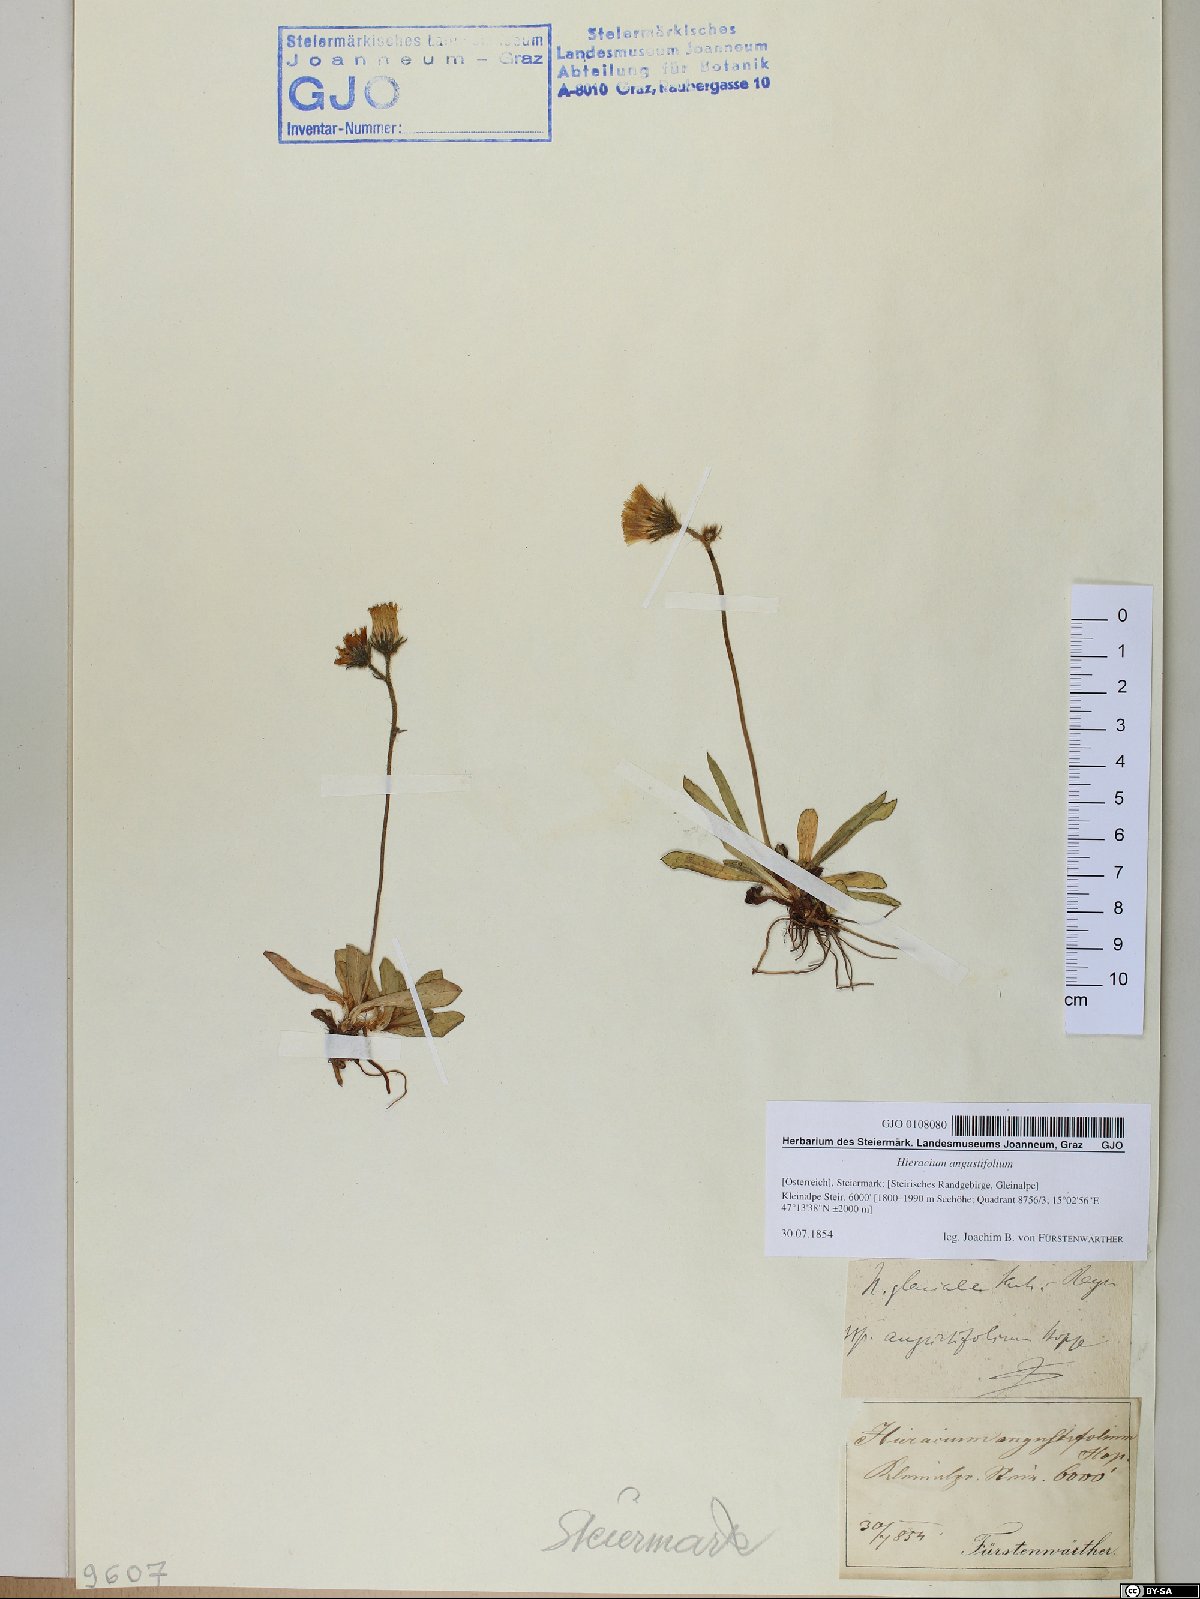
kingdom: Plantae
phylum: Tracheophyta
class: Magnoliopsida
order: Asterales
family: Asteraceae
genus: Pilosella
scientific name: Pilosella glacialis
